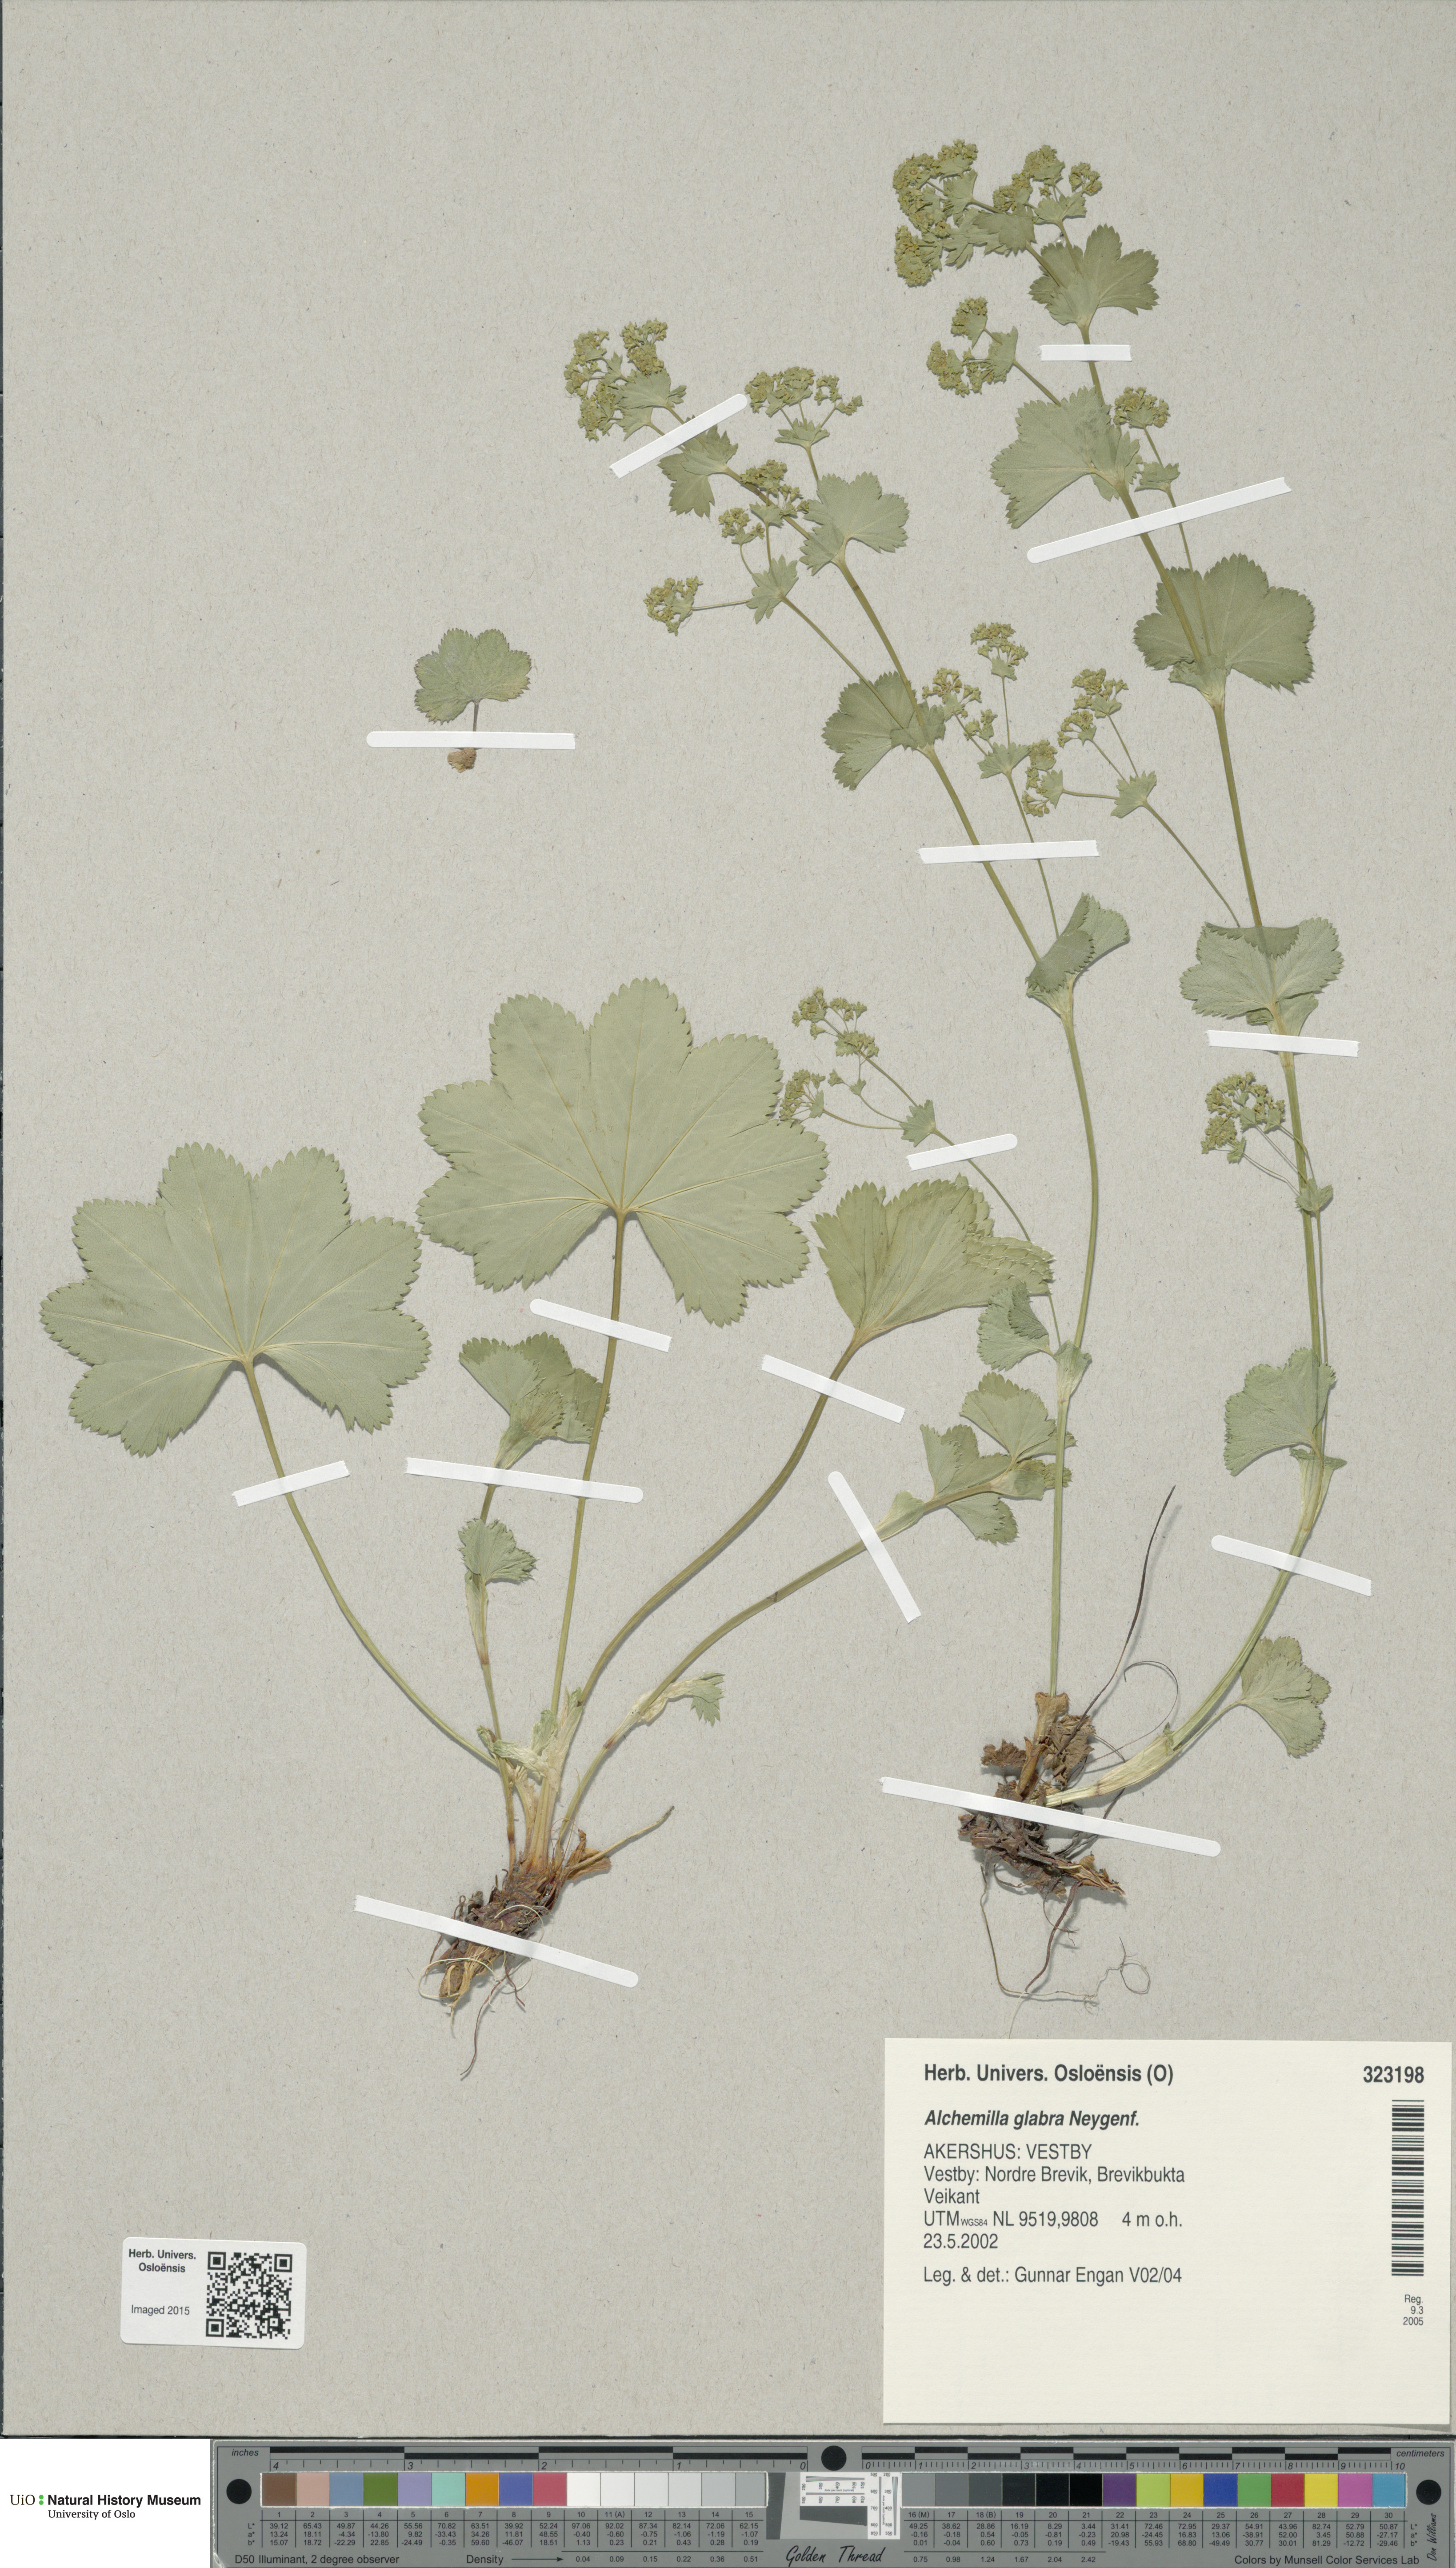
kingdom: Plantae
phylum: Tracheophyta
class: Magnoliopsida
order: Rosales
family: Rosaceae
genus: Alchemilla
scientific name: Alchemilla glabra
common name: Smooth lady's-mantle
